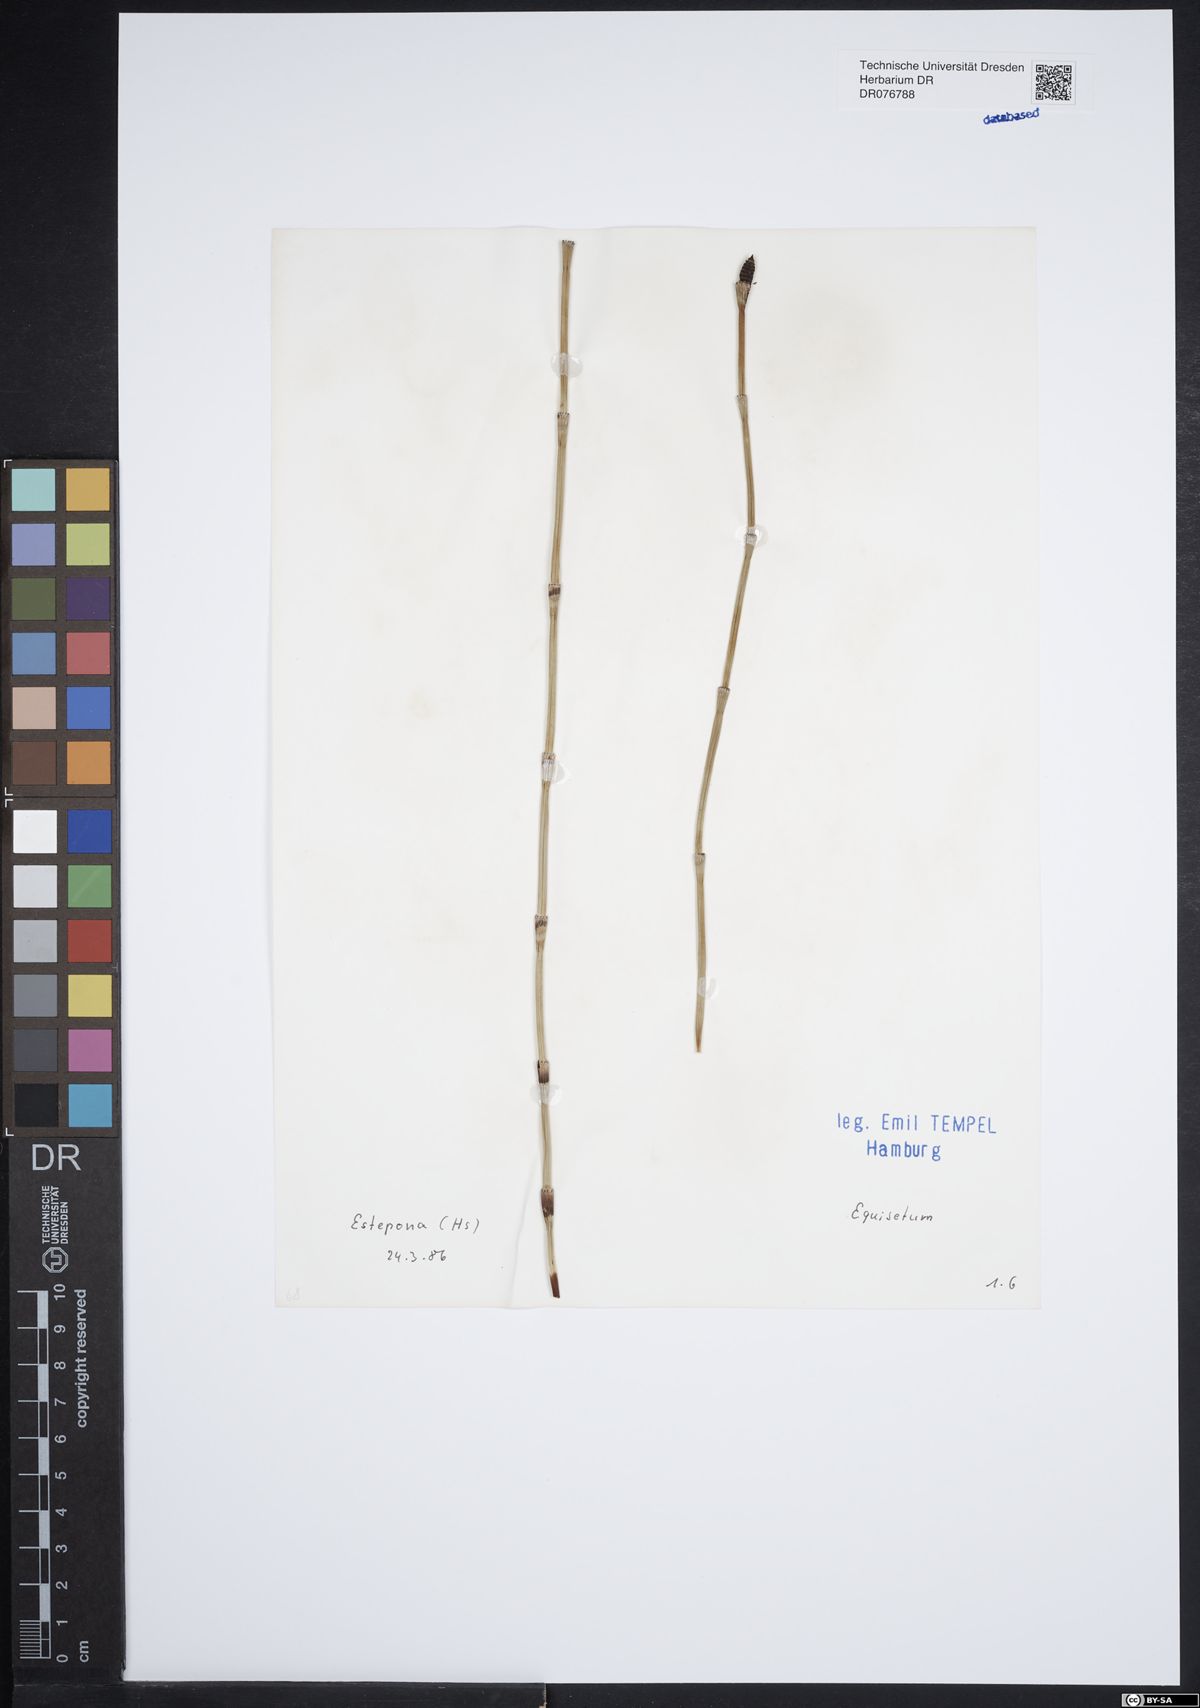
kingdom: Plantae
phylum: Tracheophyta
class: Polypodiopsida
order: Equisetales
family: Equisetaceae
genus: Equisetum
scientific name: Equisetum
